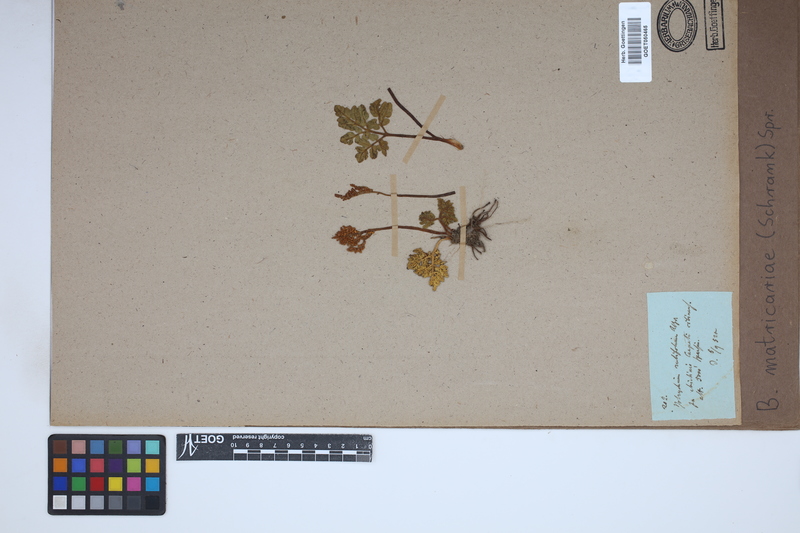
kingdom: Plantae
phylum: Tracheophyta
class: Polypodiopsida
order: Ophioglossales
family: Ophioglossaceae
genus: Sceptridium
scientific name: Sceptridium multifidum
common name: Leathery grape fern
